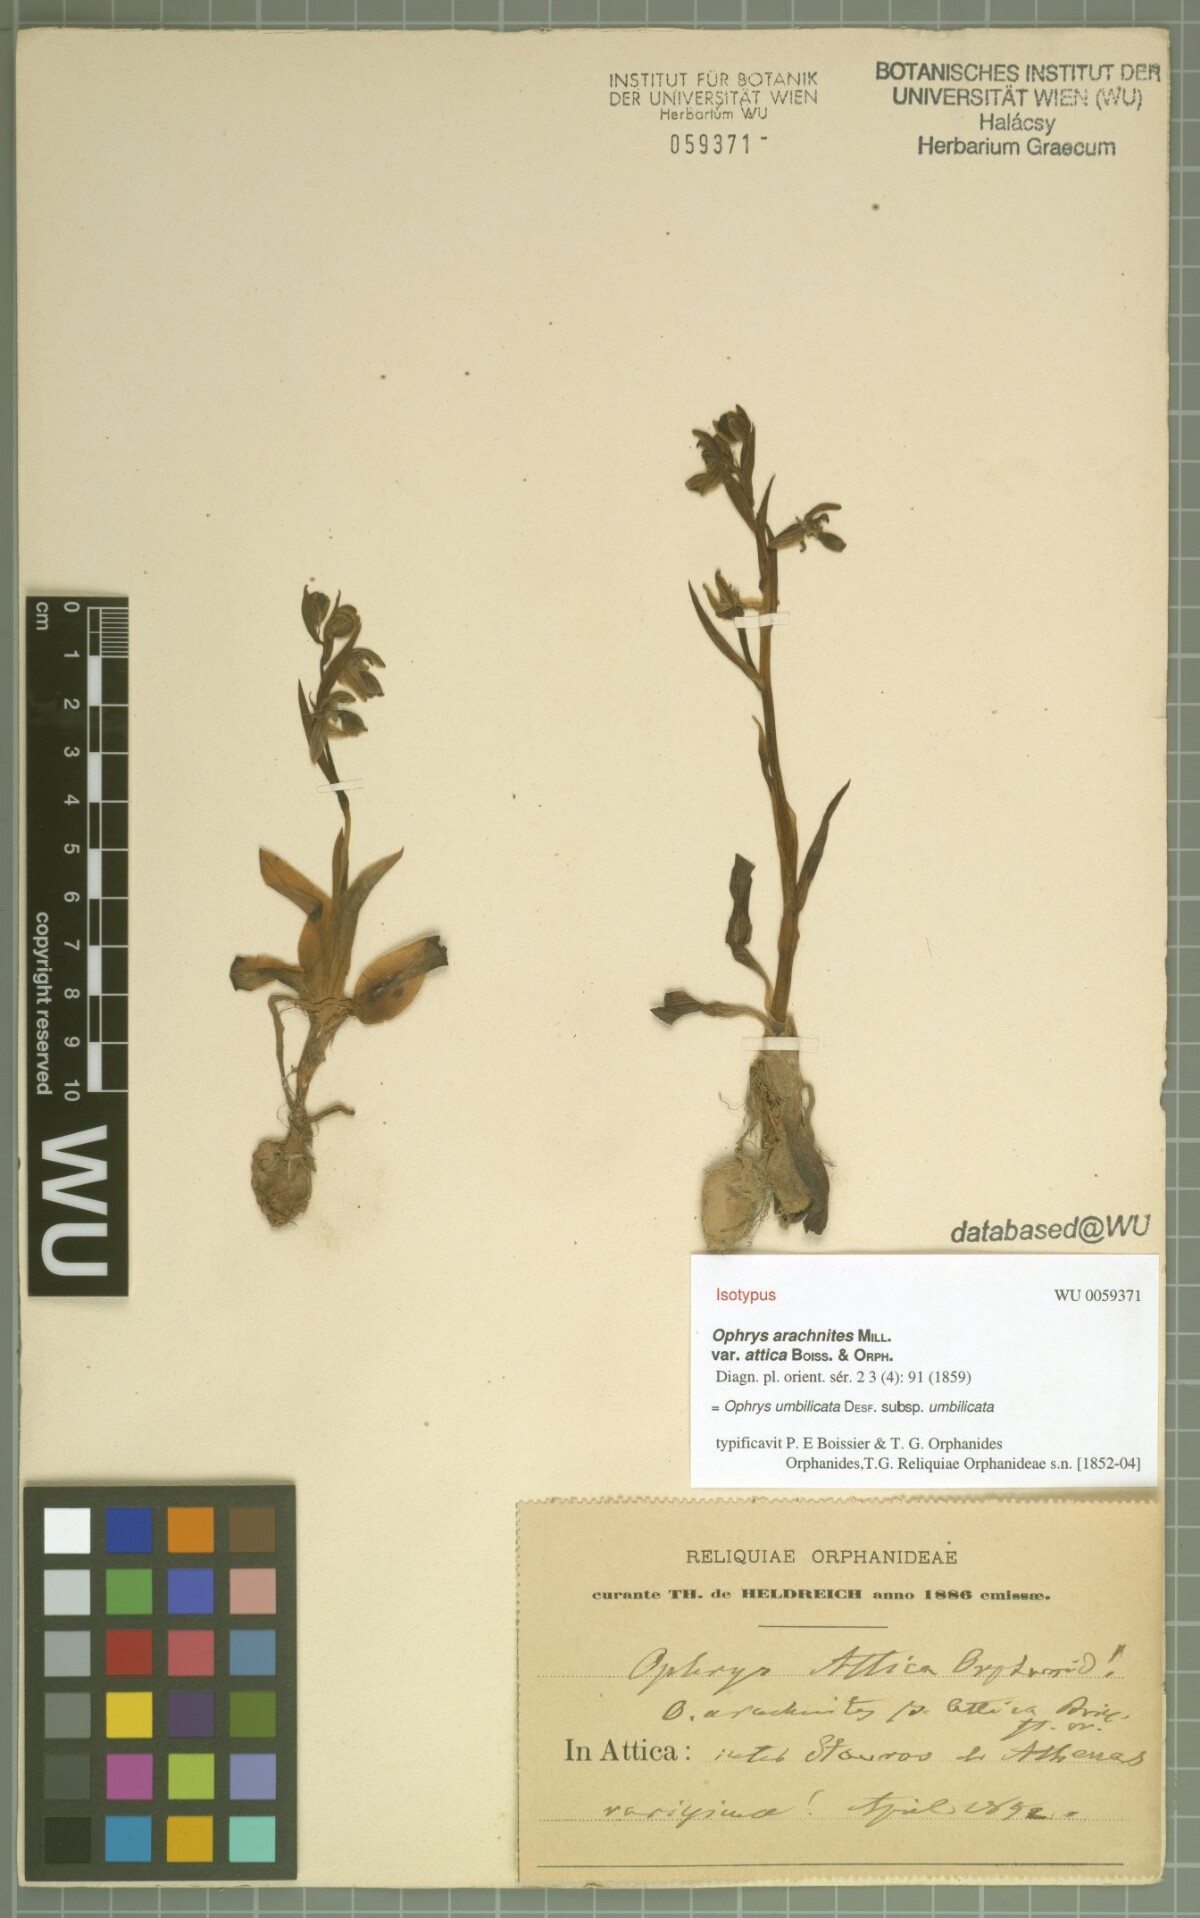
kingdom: Plantae
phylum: Tracheophyta
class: Liliopsida
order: Asparagales
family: Orchidaceae
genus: Ophrys
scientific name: Ophrys umbilicata
